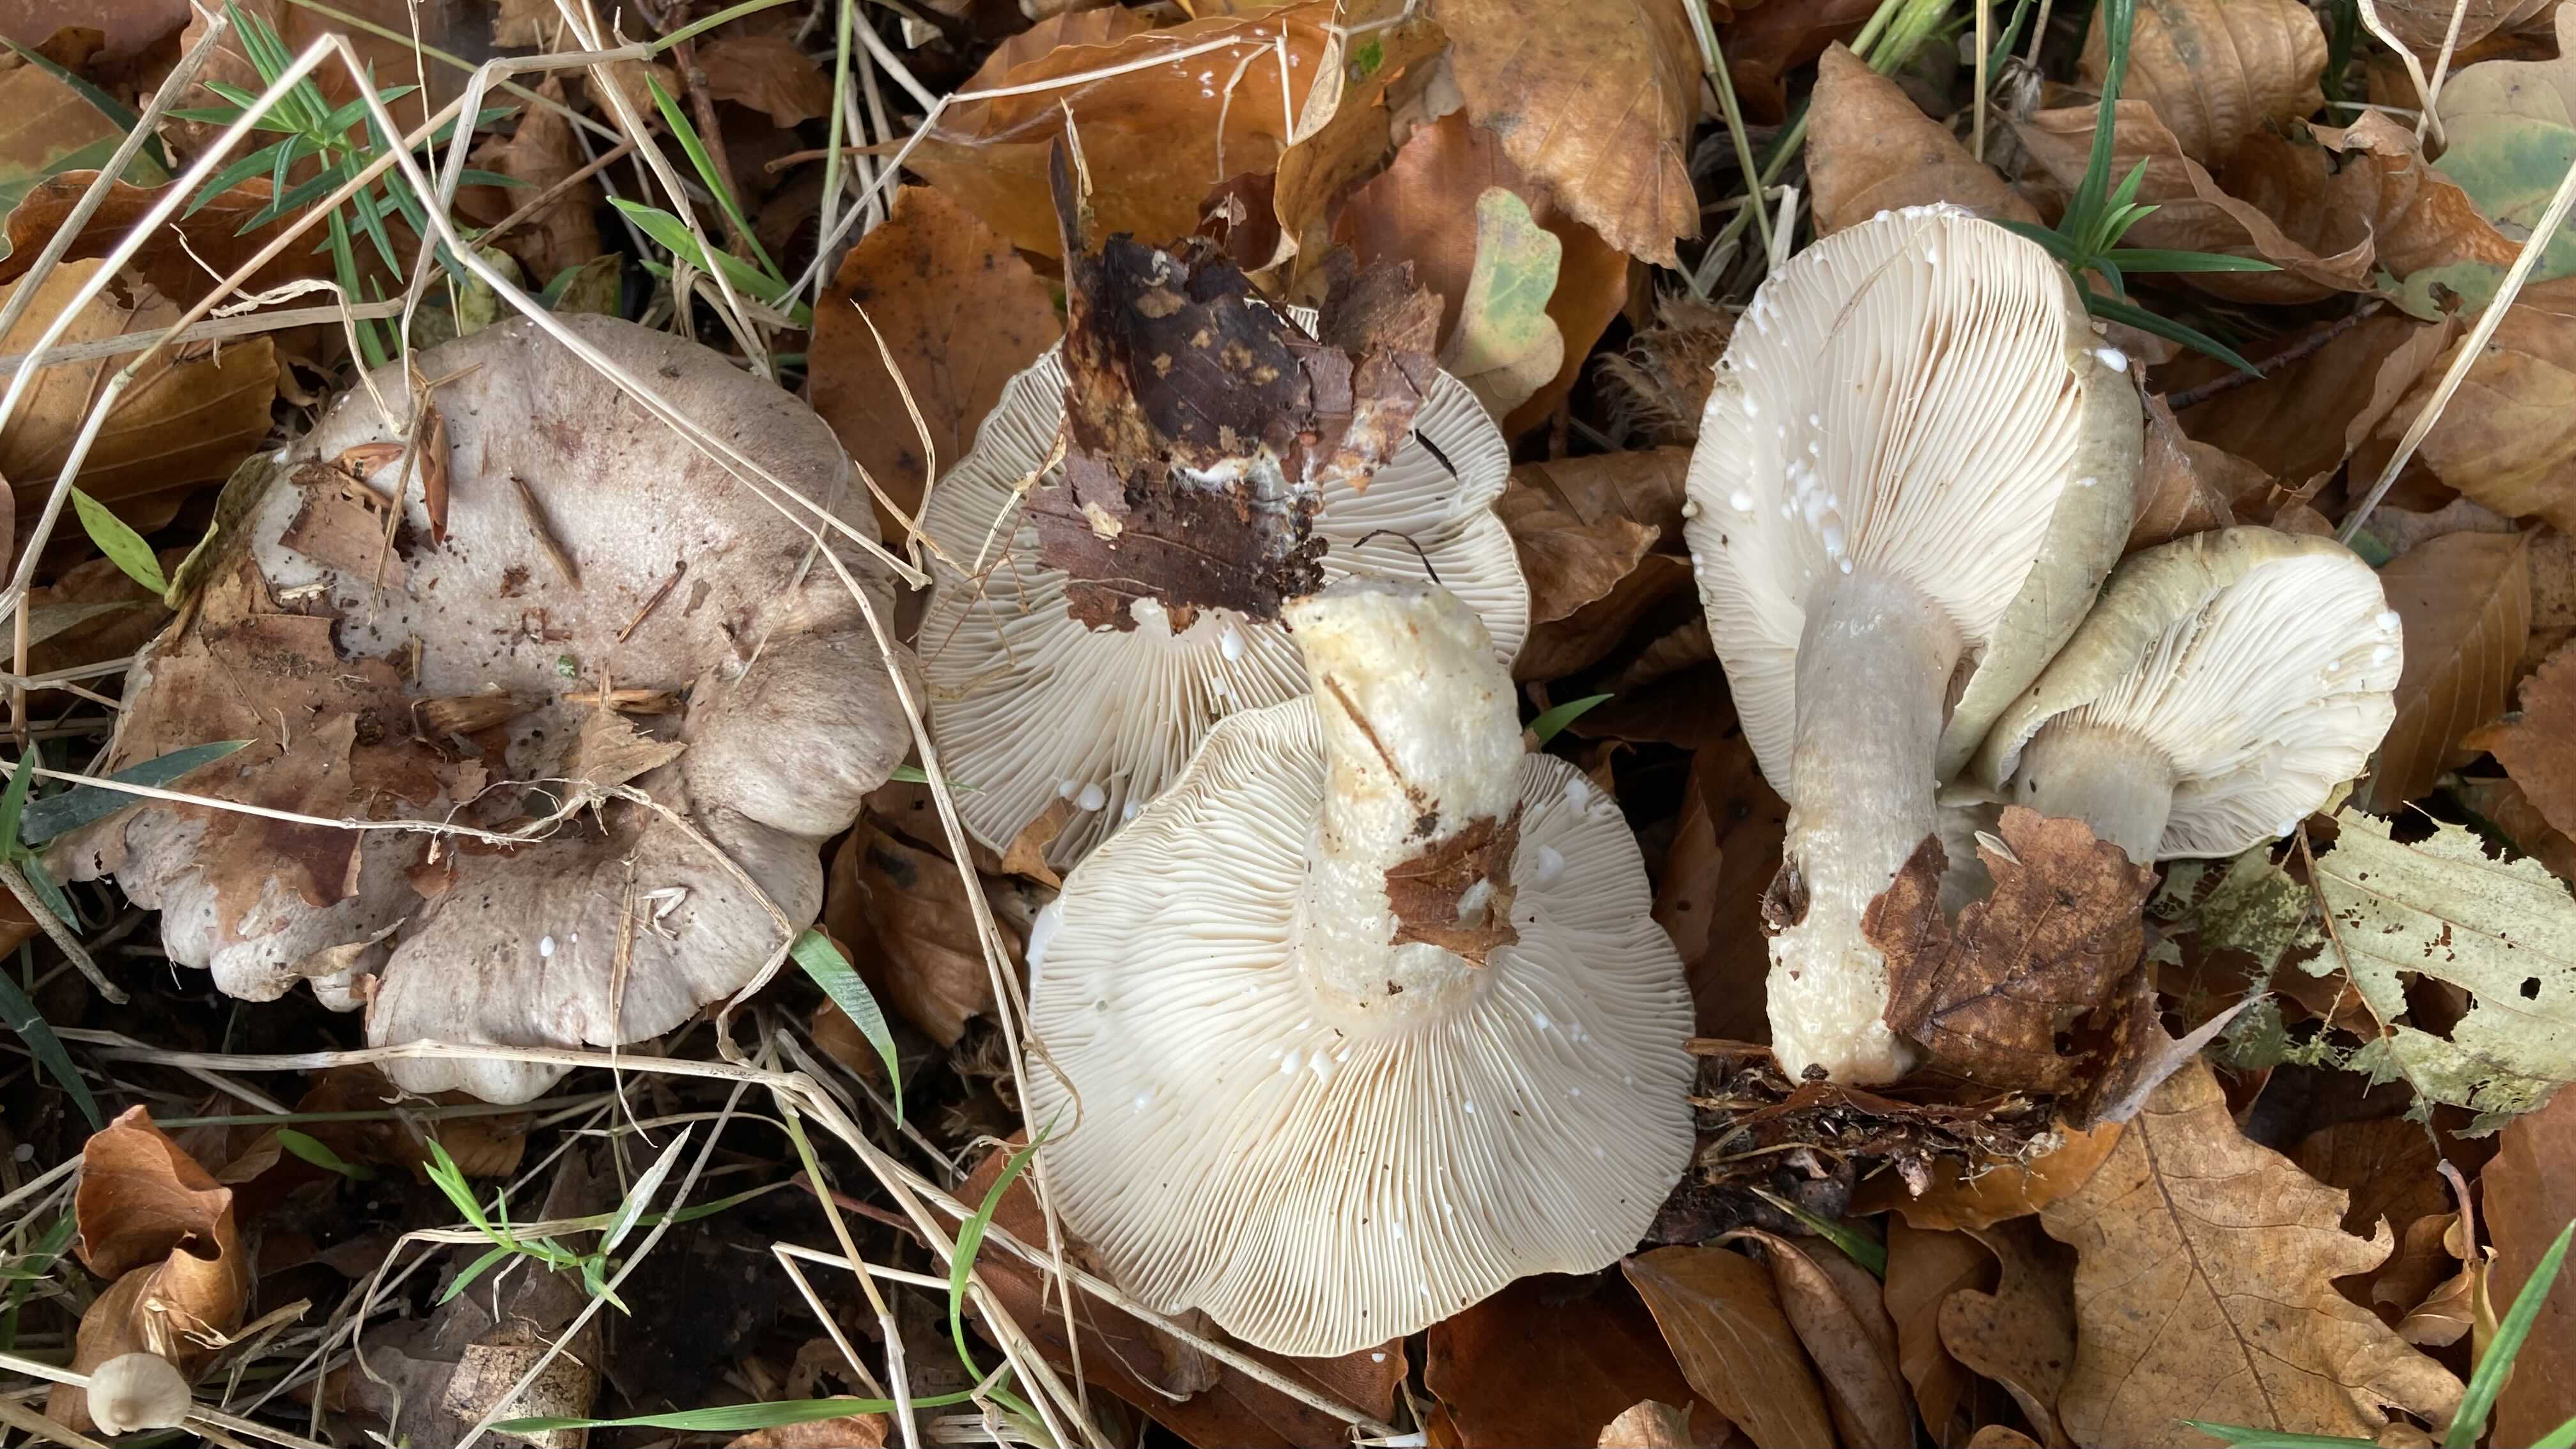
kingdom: Fungi
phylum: Basidiomycota
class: Agaricomycetes
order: Russulales
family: Russulaceae
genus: Lactarius
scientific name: Lactarius blennius
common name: dråbeplettet mælkehat
